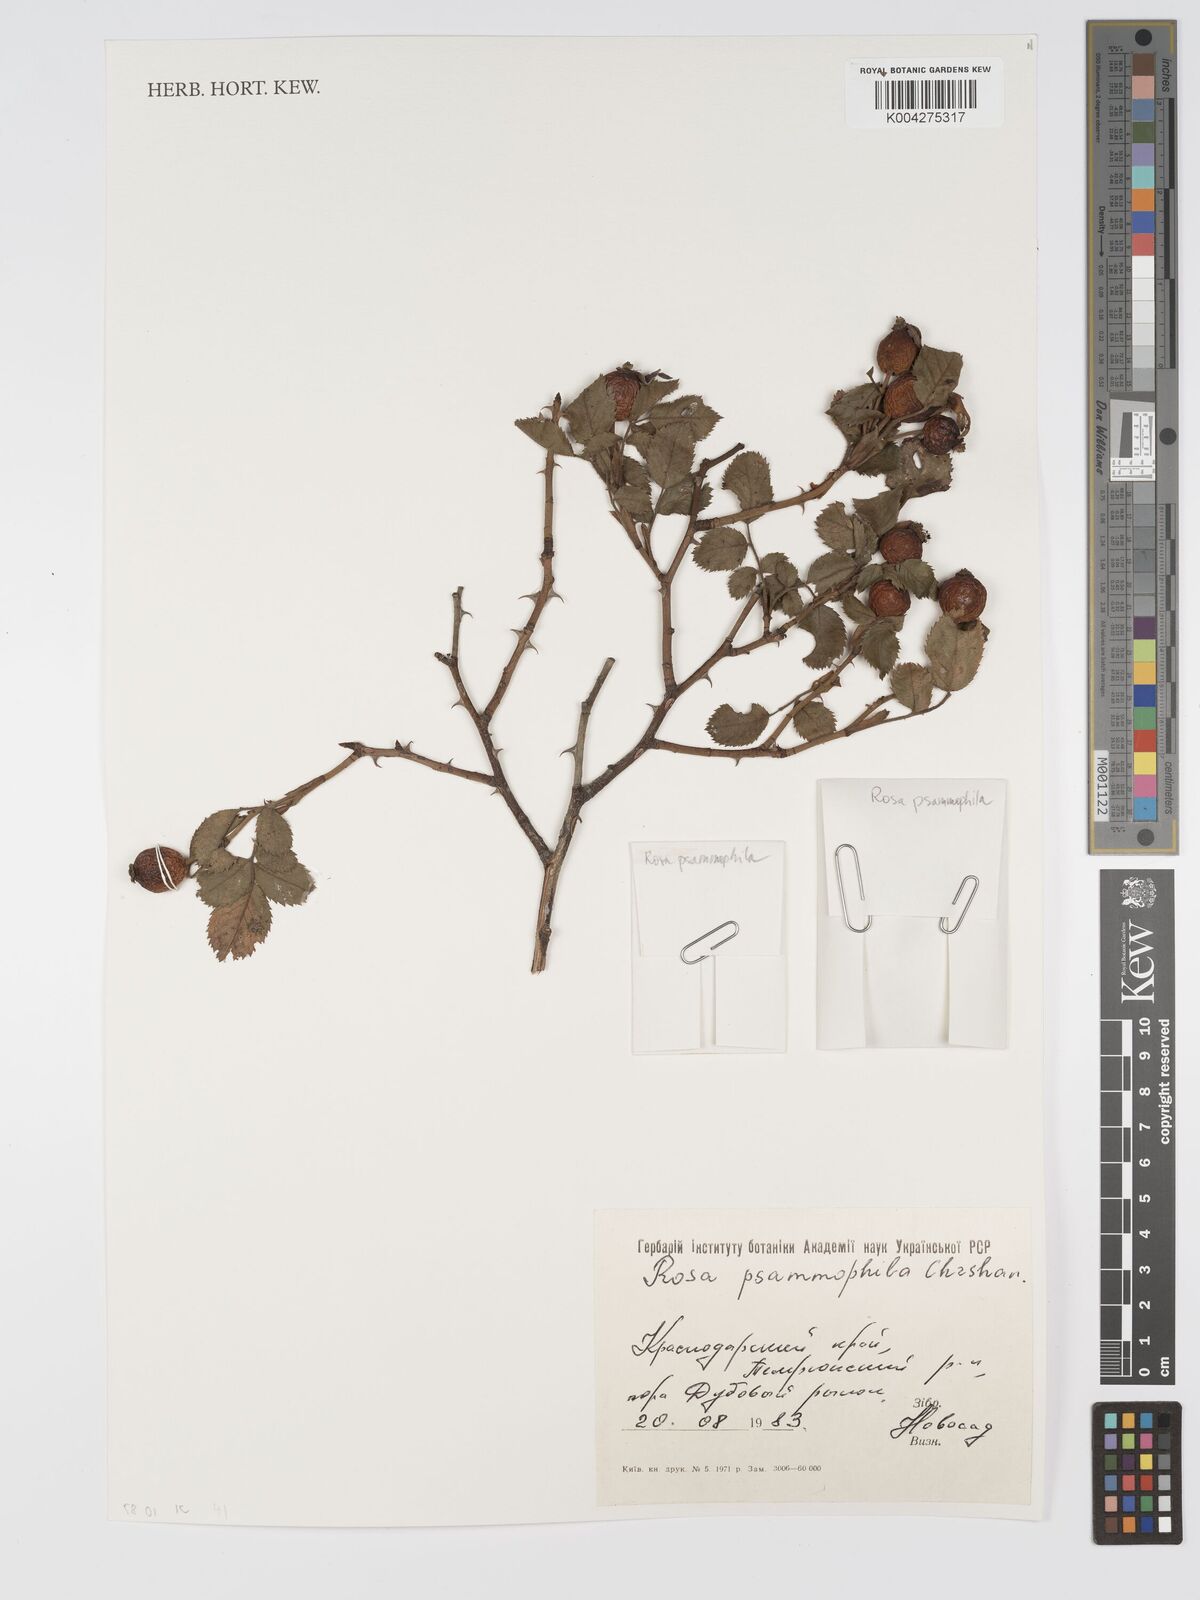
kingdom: Plantae
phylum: Tracheophyta
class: Magnoliopsida
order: Rosales
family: Rosaceae
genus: Rosa
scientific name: Rosa
